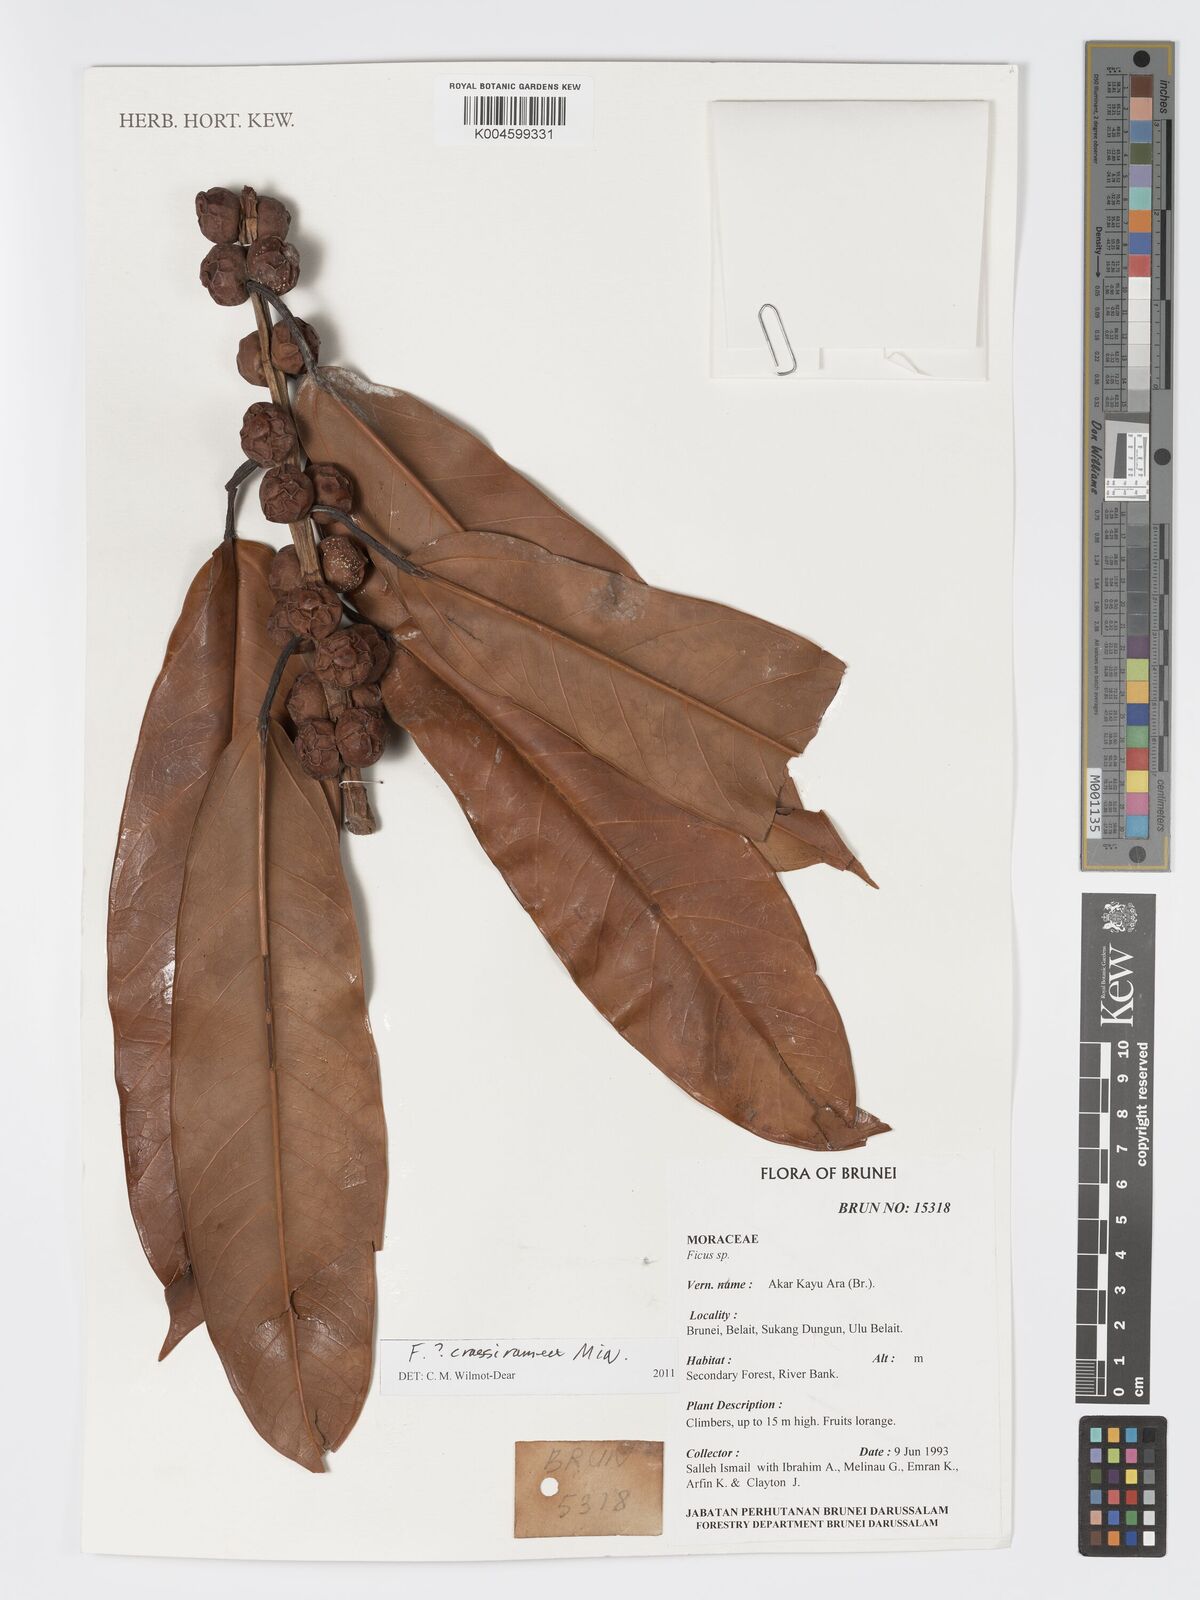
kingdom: Plantae
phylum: Tracheophyta
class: Magnoliopsida
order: Rosales
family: Moraceae
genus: Ficus
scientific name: Ficus crassiramea
